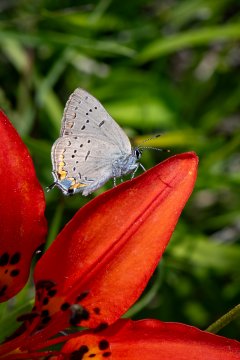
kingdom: Animalia
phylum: Arthropoda
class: Insecta
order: Lepidoptera
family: Lycaenidae
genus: Strymon
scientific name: Strymon acadica
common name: Acadian Hairstreak
